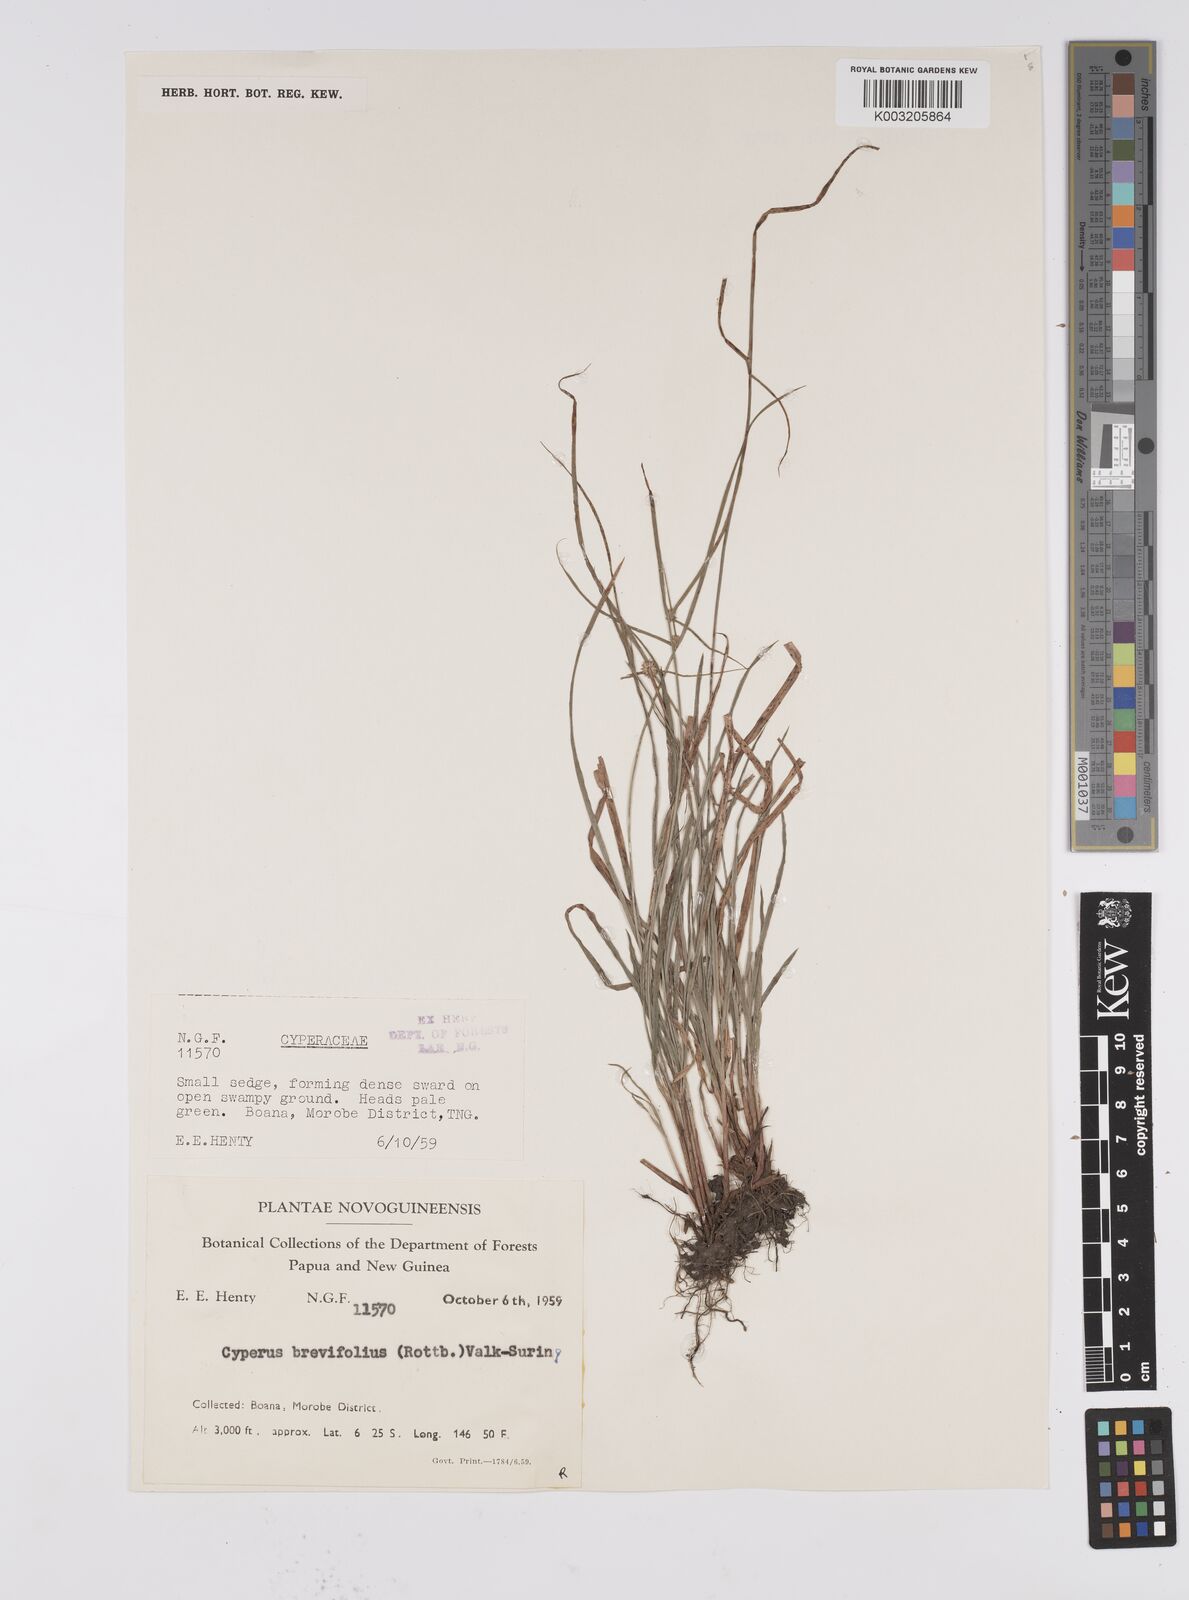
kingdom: Plantae
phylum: Tracheophyta
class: Liliopsida
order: Poales
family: Cyperaceae
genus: Cyperus
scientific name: Cyperus brevifolius
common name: Globe kyllinga
